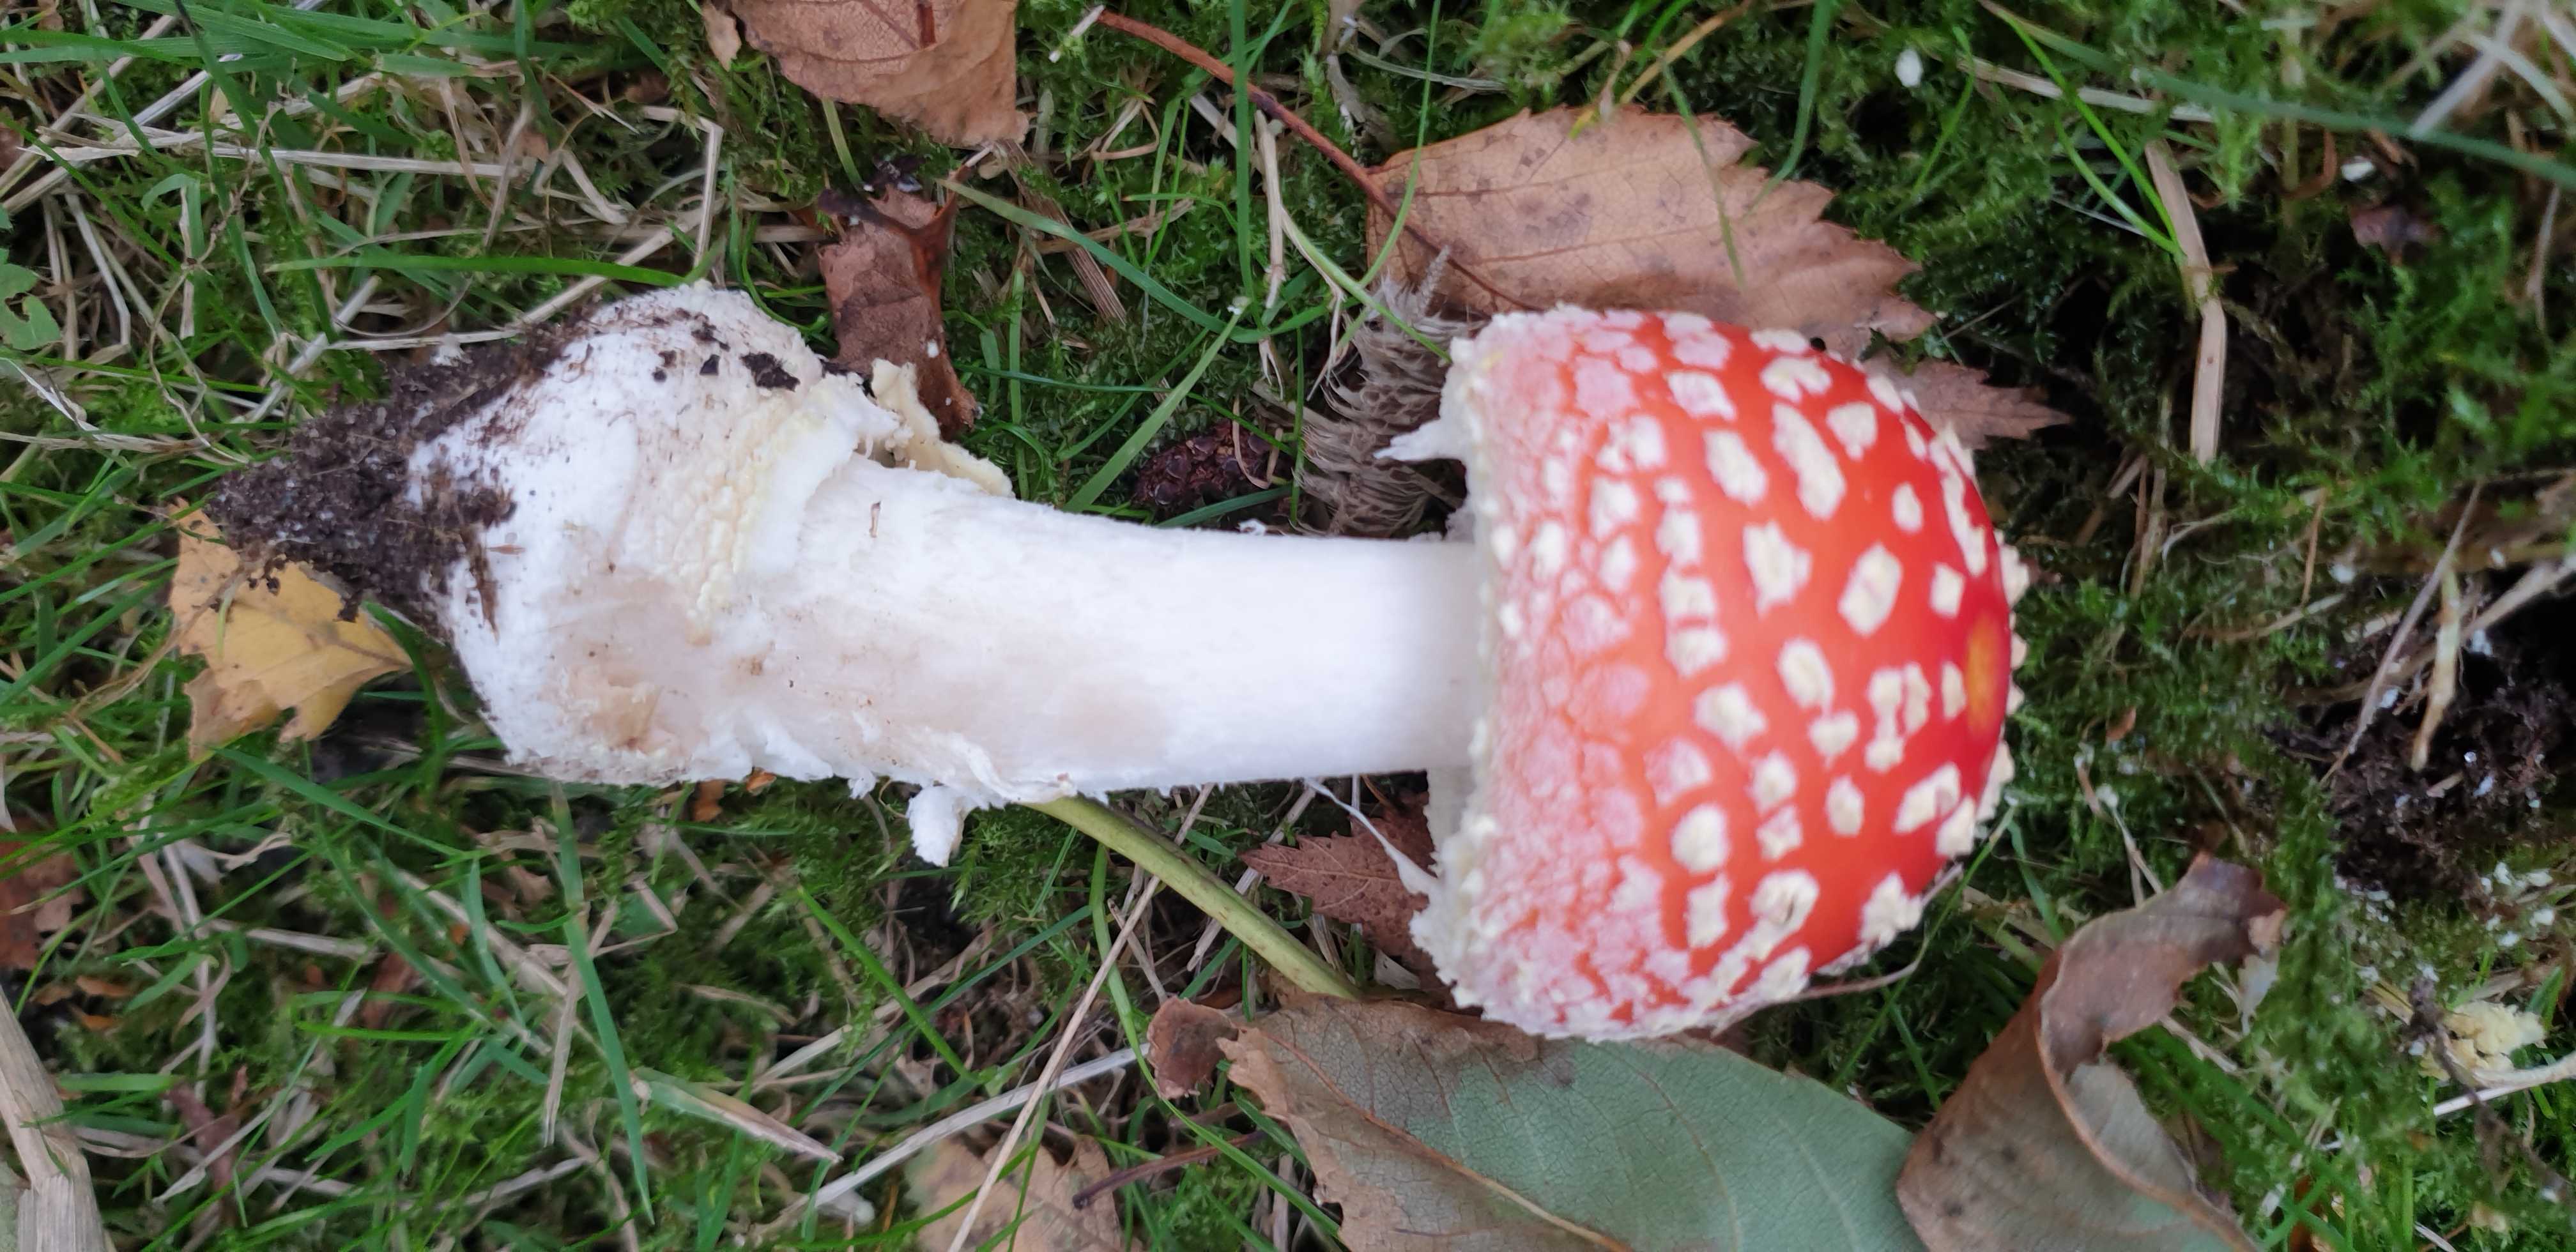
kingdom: Fungi
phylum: Basidiomycota
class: Agaricomycetes
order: Agaricales
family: Amanitaceae
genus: Amanita
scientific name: Amanita muscaria
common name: rød fluesvamp
